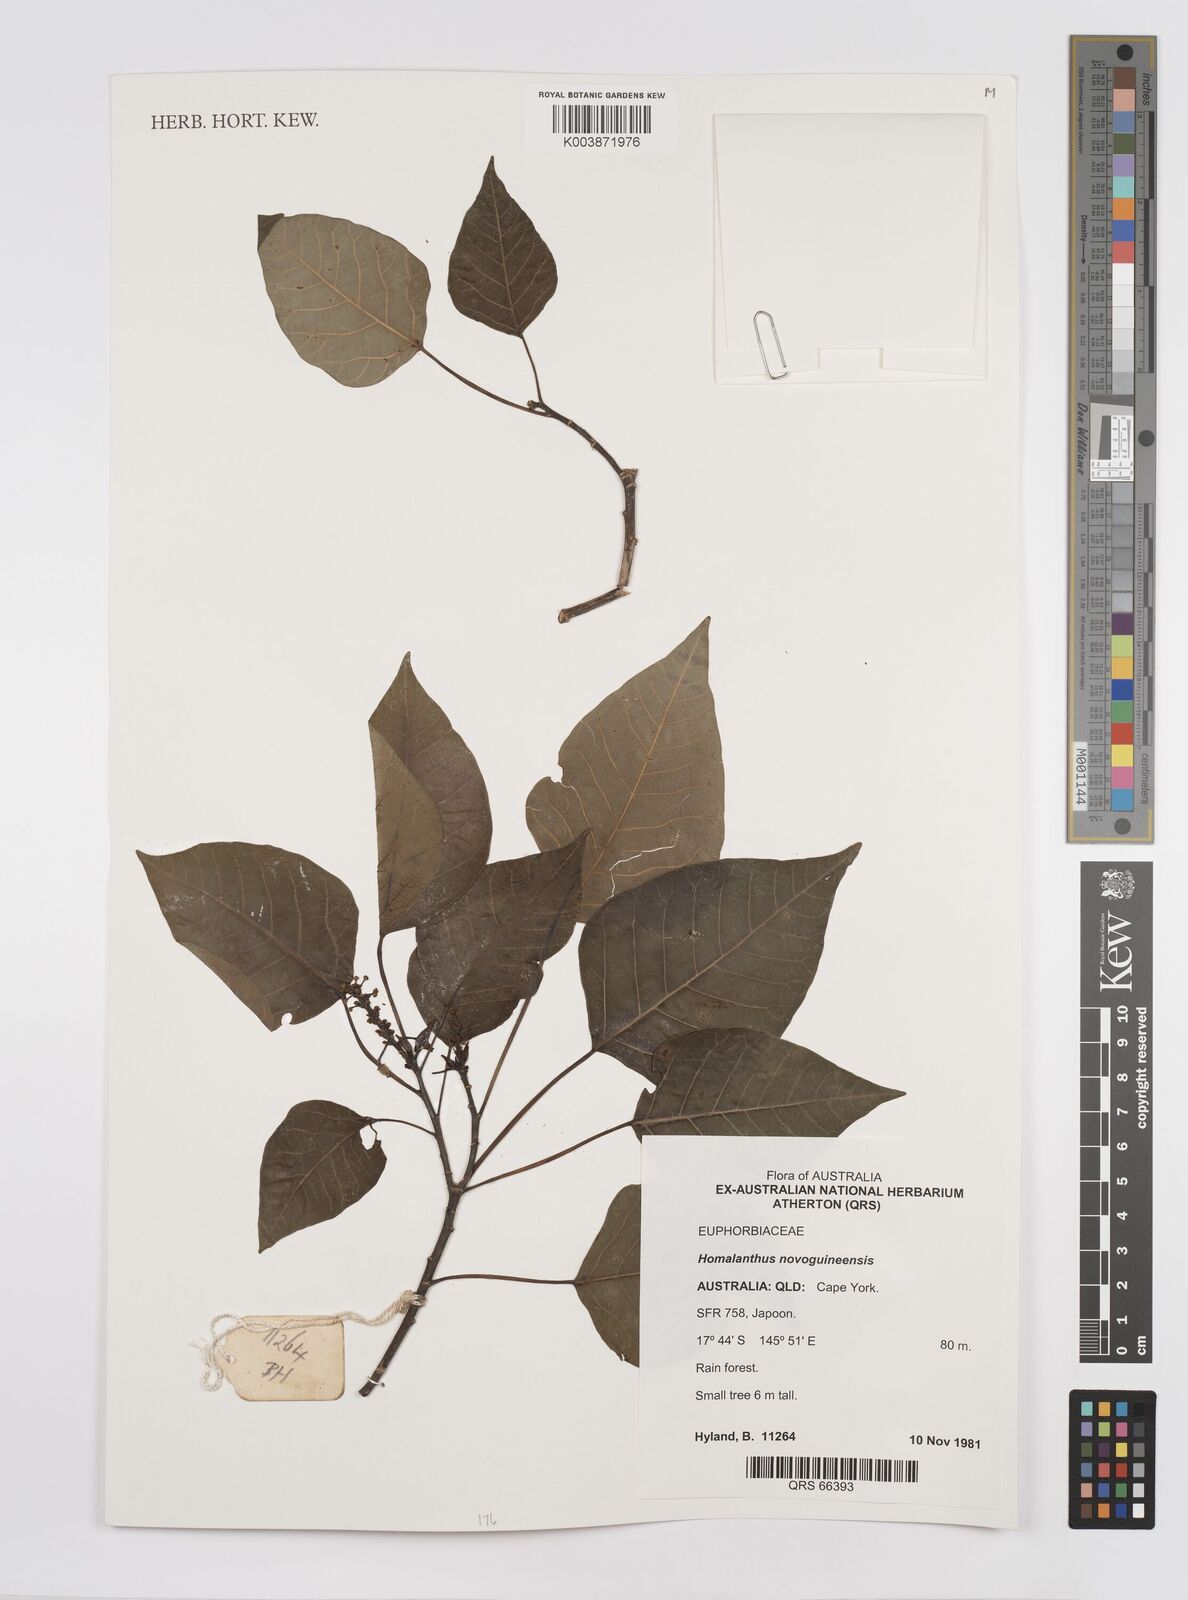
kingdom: Plantae
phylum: Tracheophyta
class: Magnoliopsida
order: Malpighiales
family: Euphorbiaceae
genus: Homalanthus
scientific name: Homalanthus novoguineensis
